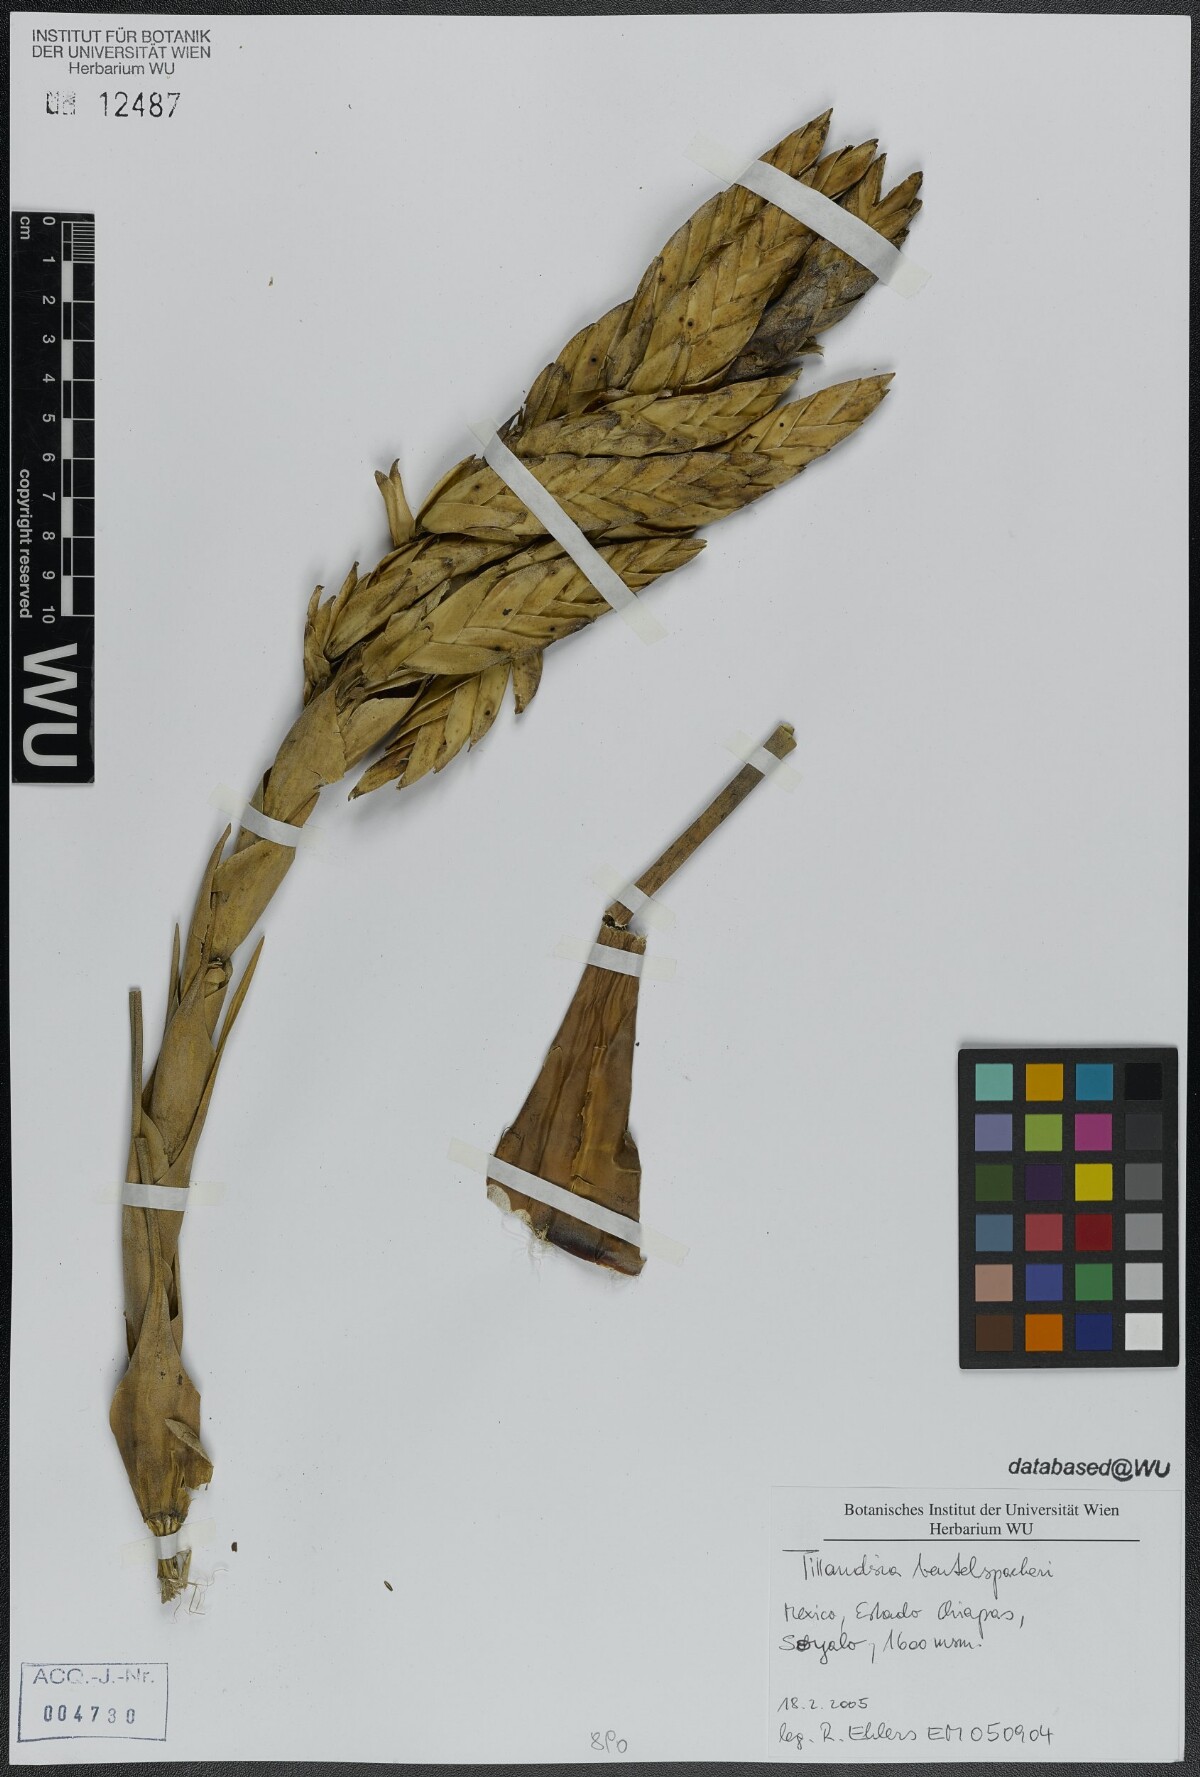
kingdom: Plantae
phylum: Tracheophyta
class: Liliopsida
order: Poales
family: Bromeliaceae
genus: Tillandsia
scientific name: Tillandsia fasciculata
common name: Giant airplant
